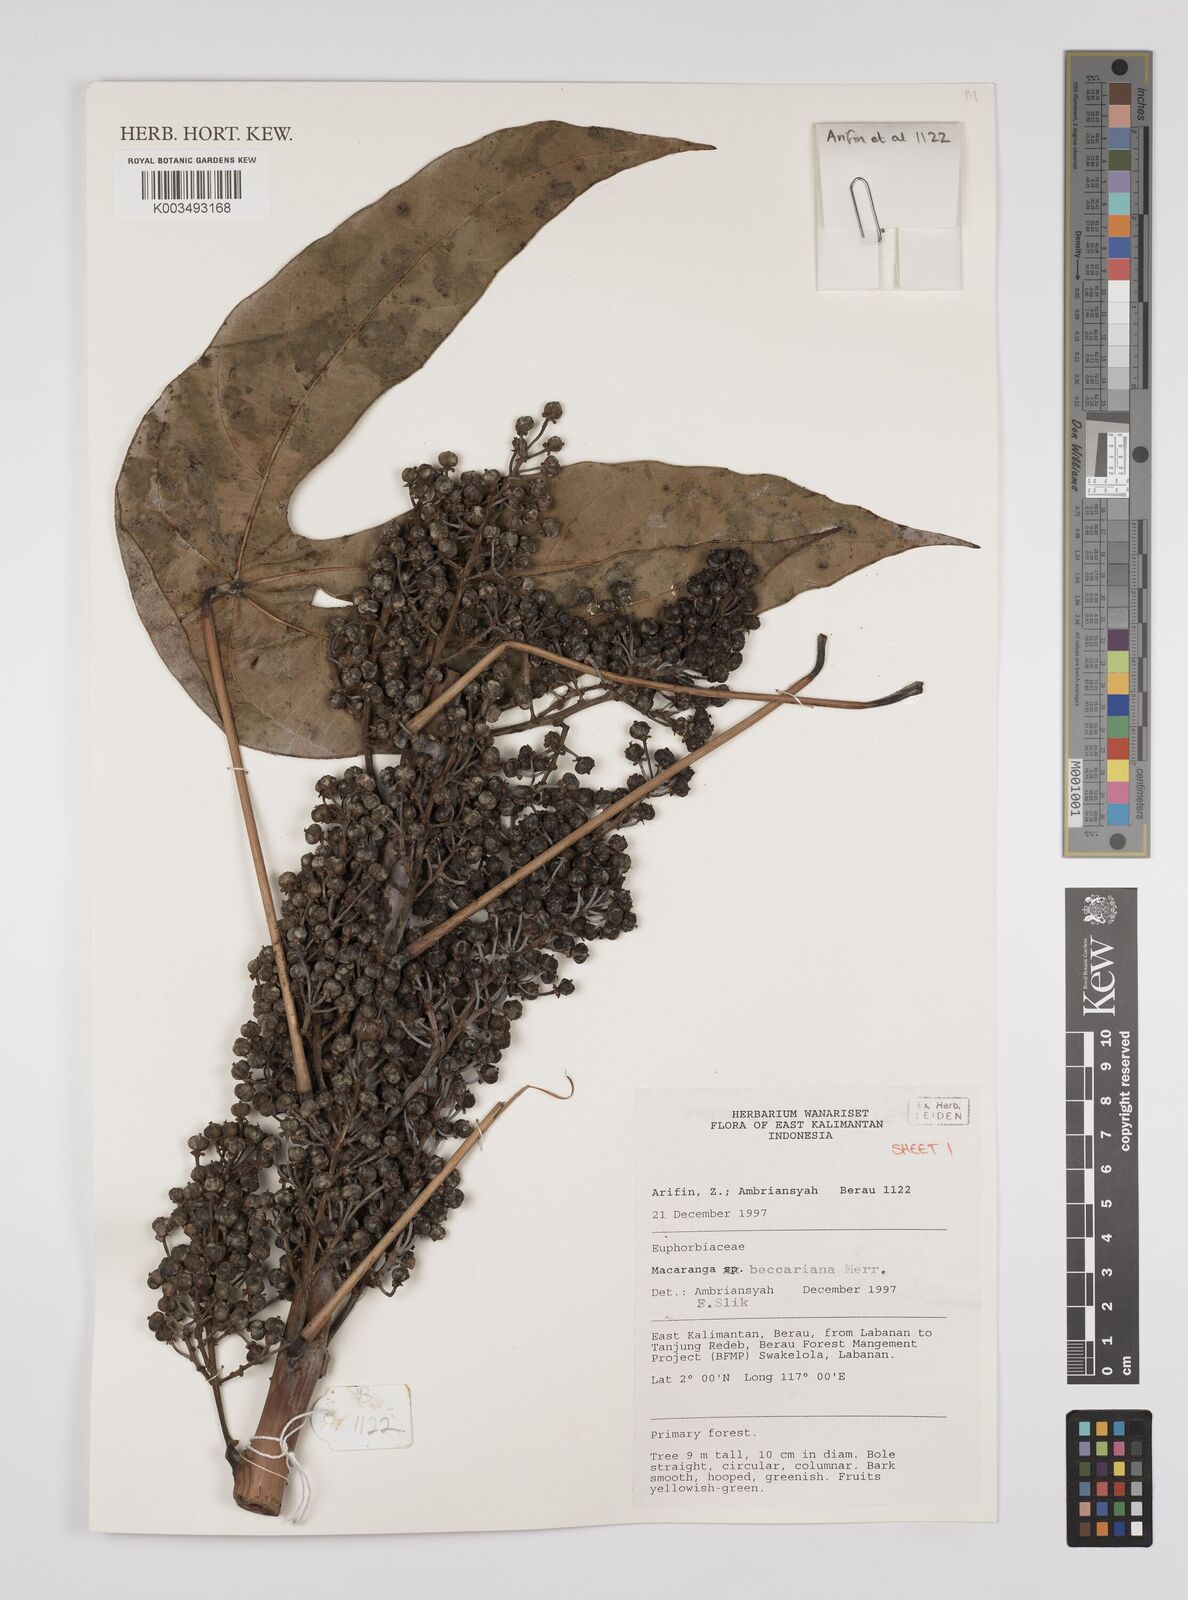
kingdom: Plantae
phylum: Tracheophyta
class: Magnoliopsida
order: Malpighiales
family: Euphorbiaceae
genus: Macaranga
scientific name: Macaranga beccariana
